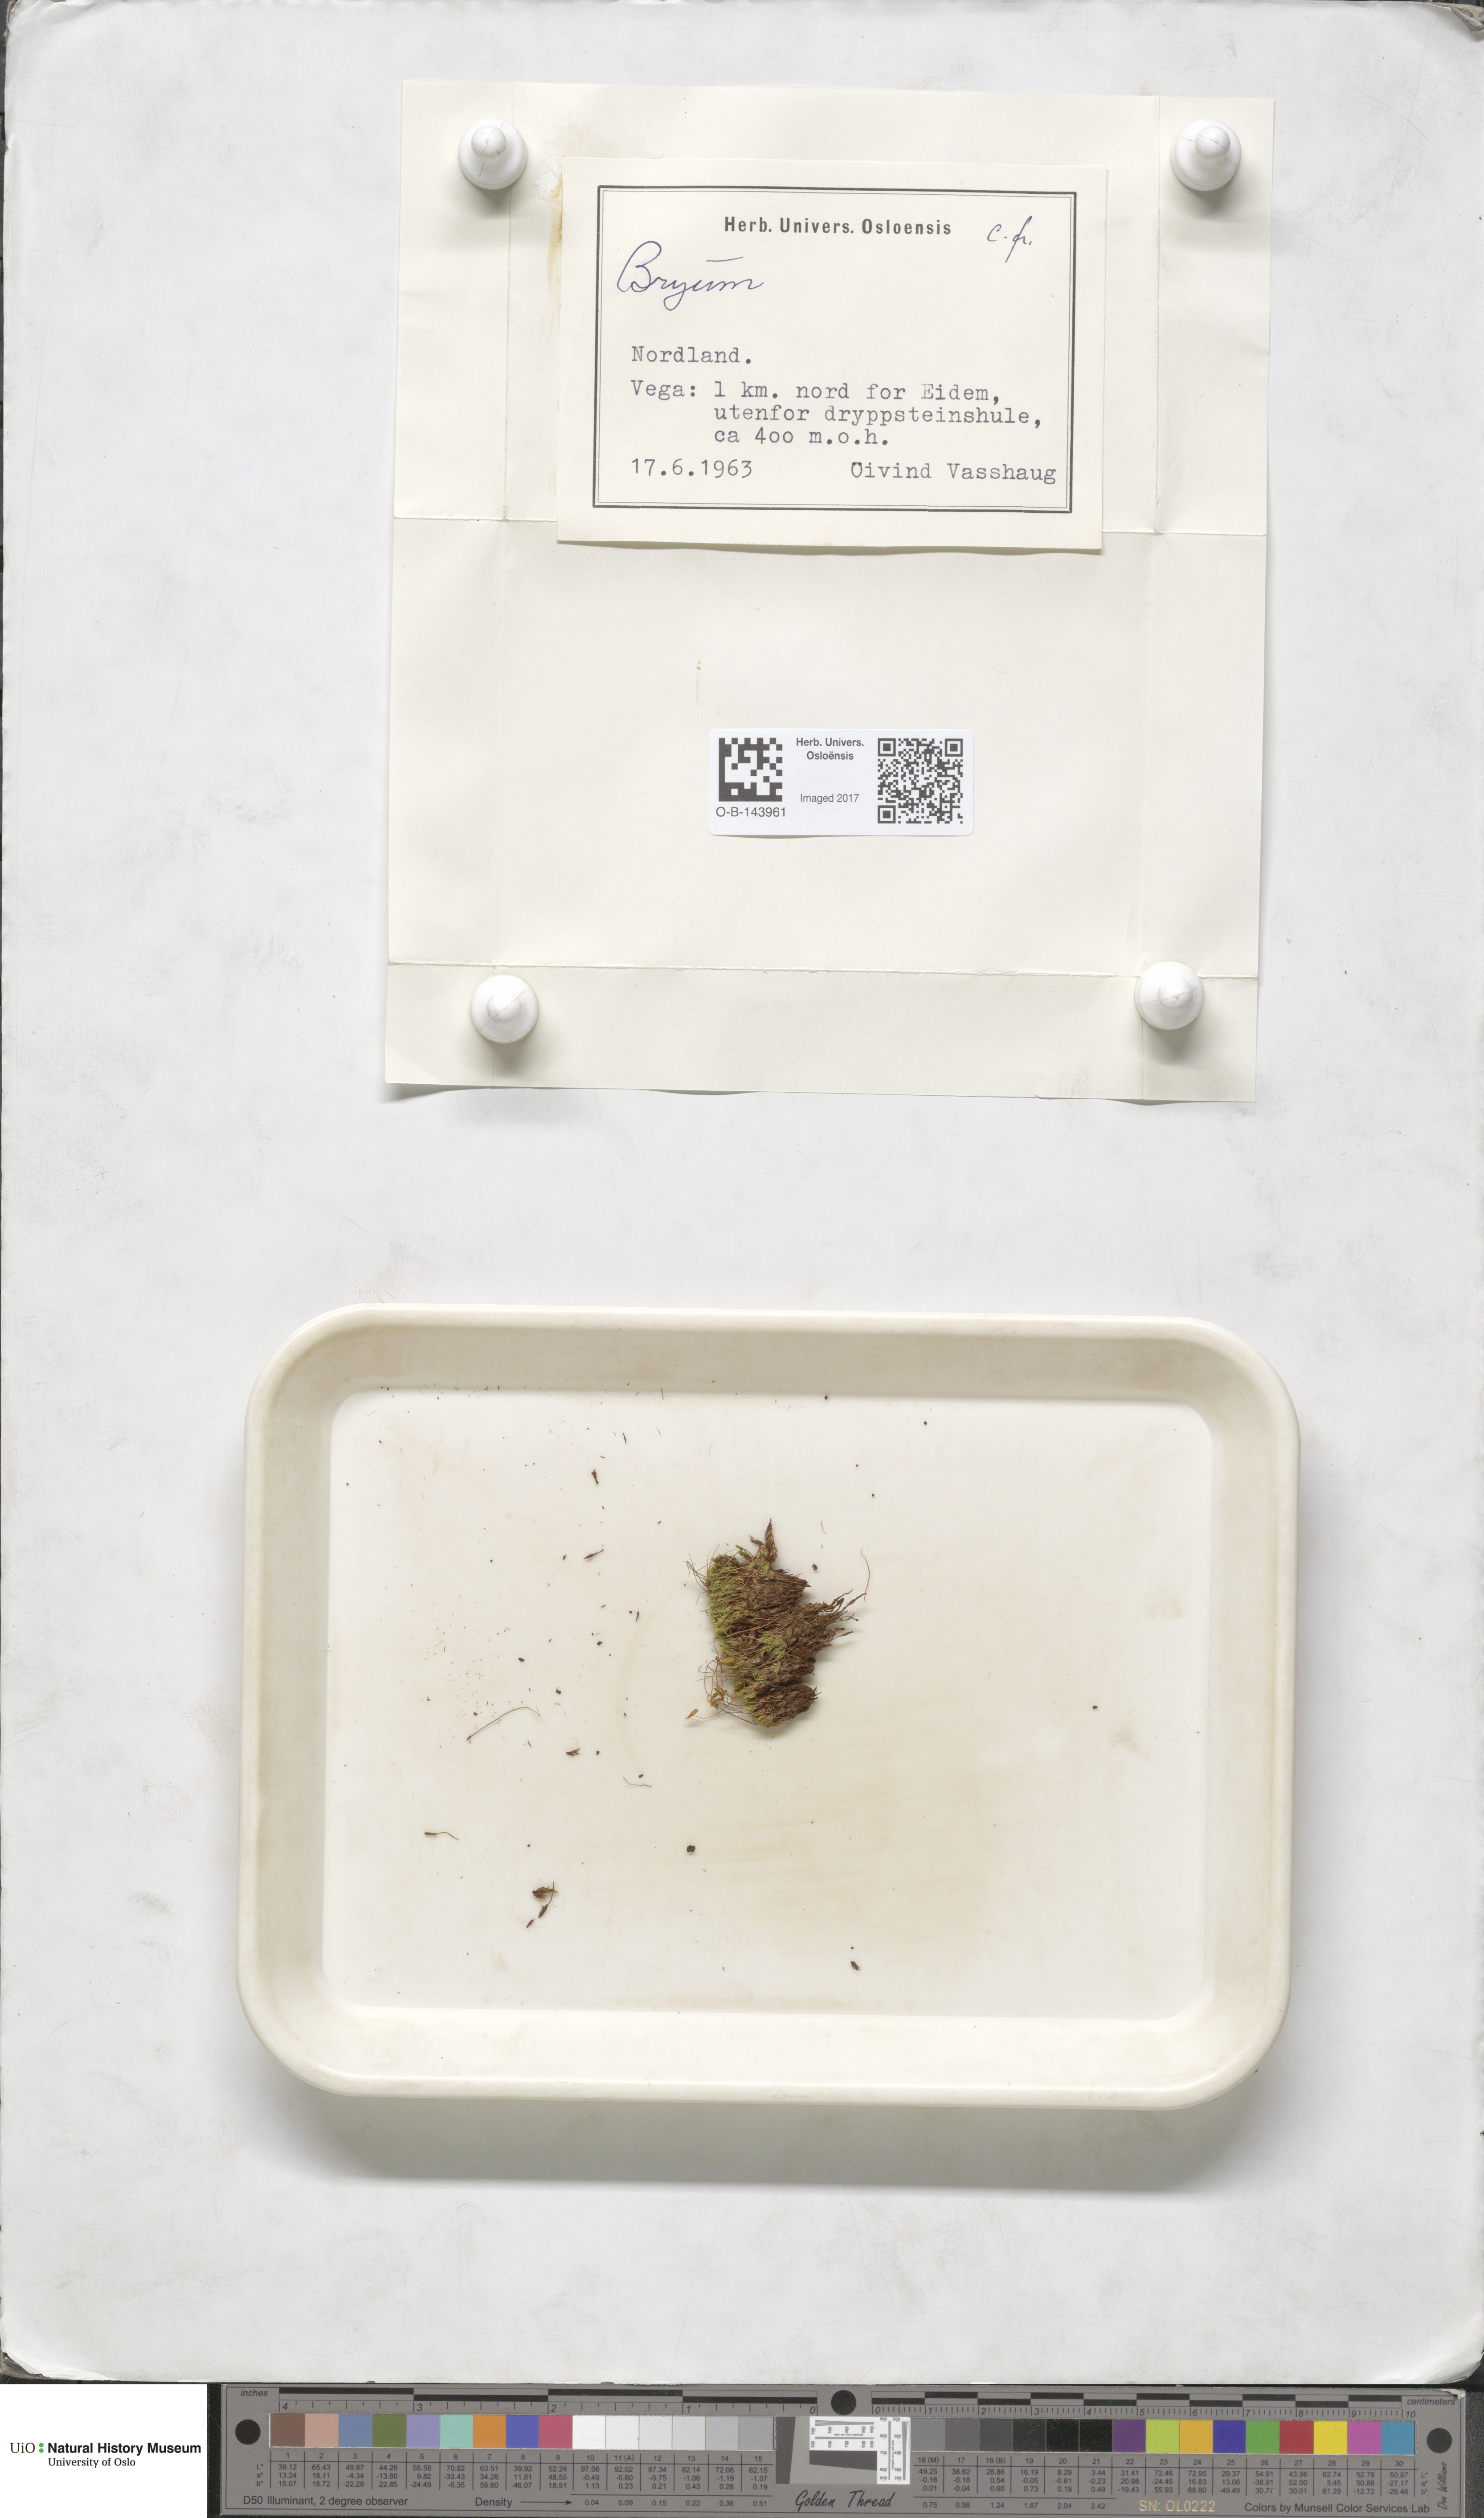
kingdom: Plantae
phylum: Bryophyta
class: Bryopsida
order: Bryales
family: Bryaceae
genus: Bryum
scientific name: Bryum
